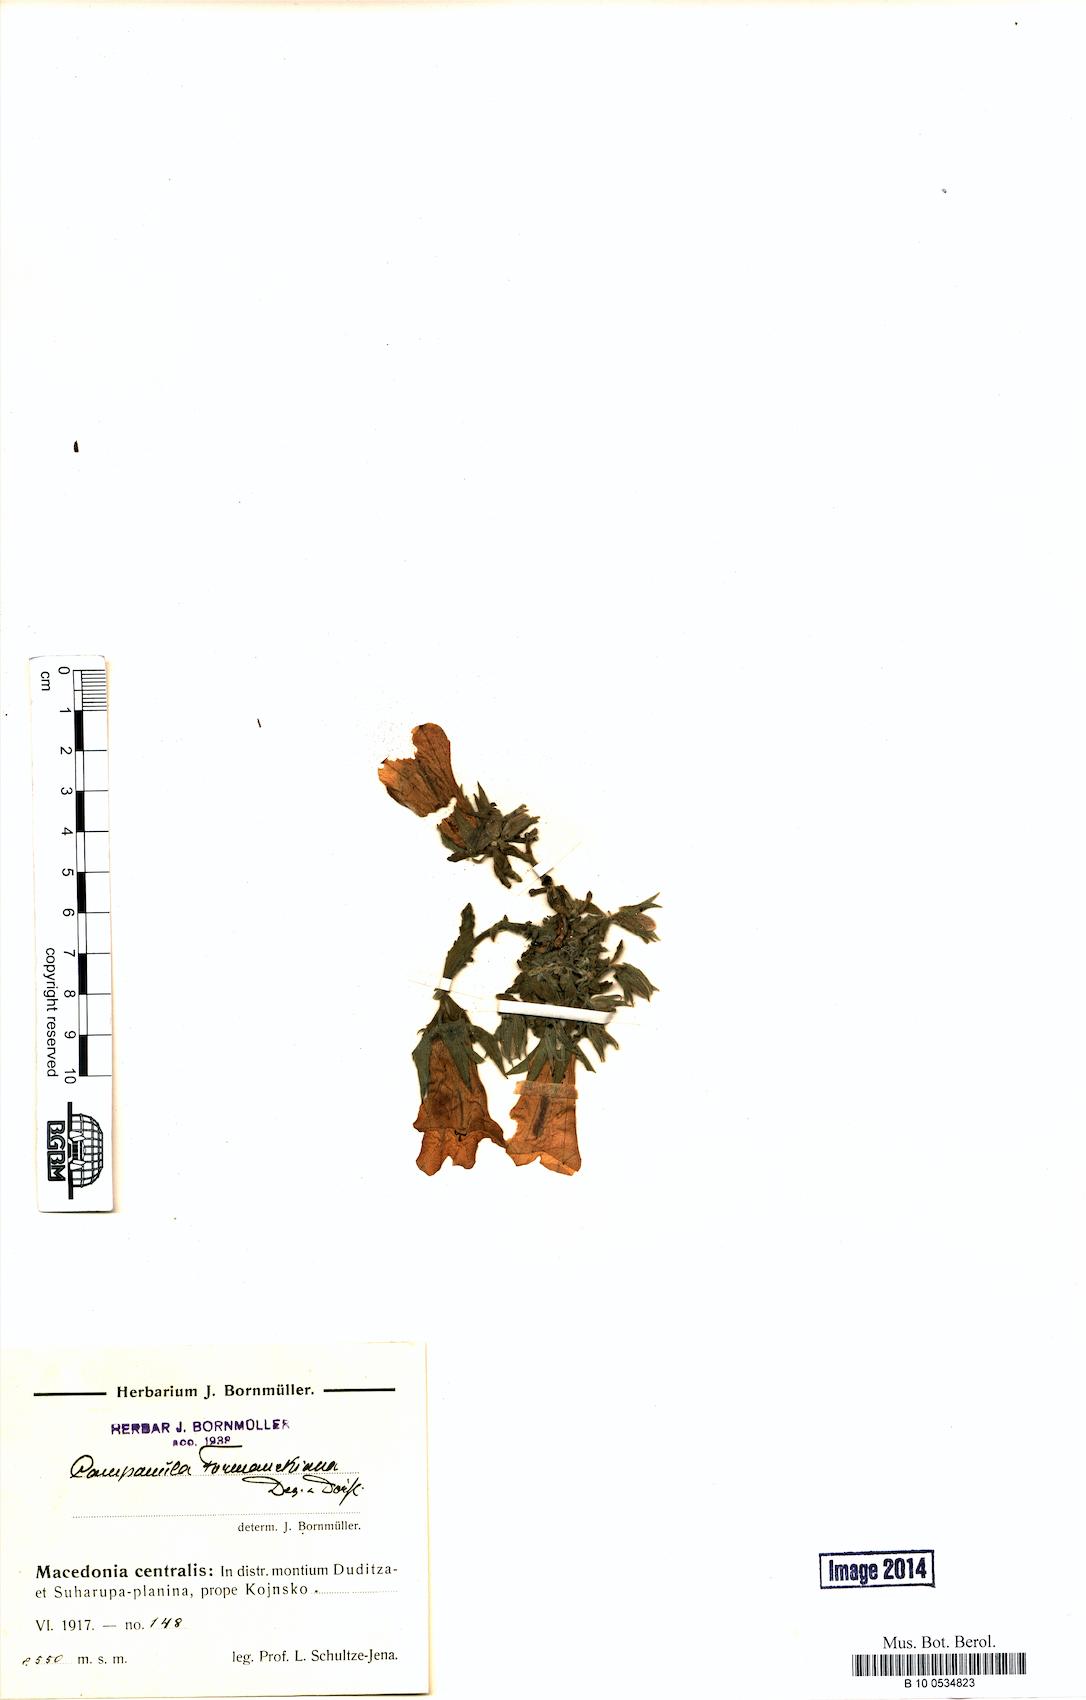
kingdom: Plantae
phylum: Tracheophyta
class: Magnoliopsida
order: Asterales
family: Campanulaceae
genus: Campanula
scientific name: Campanula formanekiana
